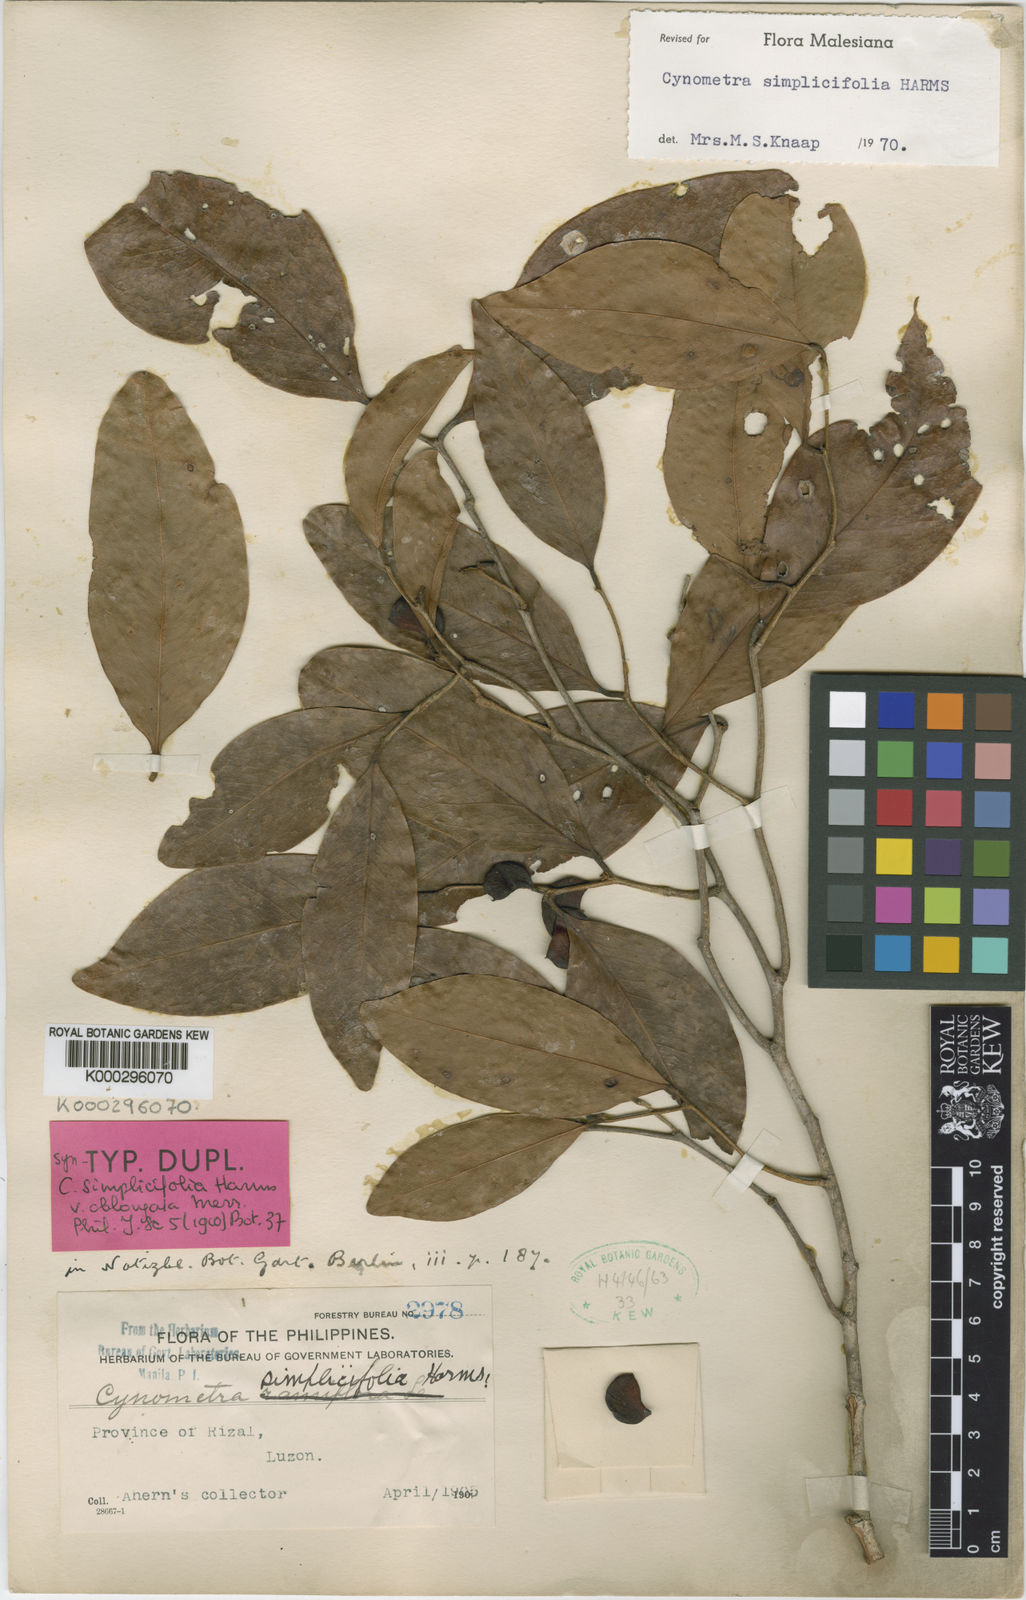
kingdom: Plantae
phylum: Tracheophyta
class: Magnoliopsida
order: Fabales
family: Fabaceae
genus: Cynometra
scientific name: Cynometra simplicifolia
